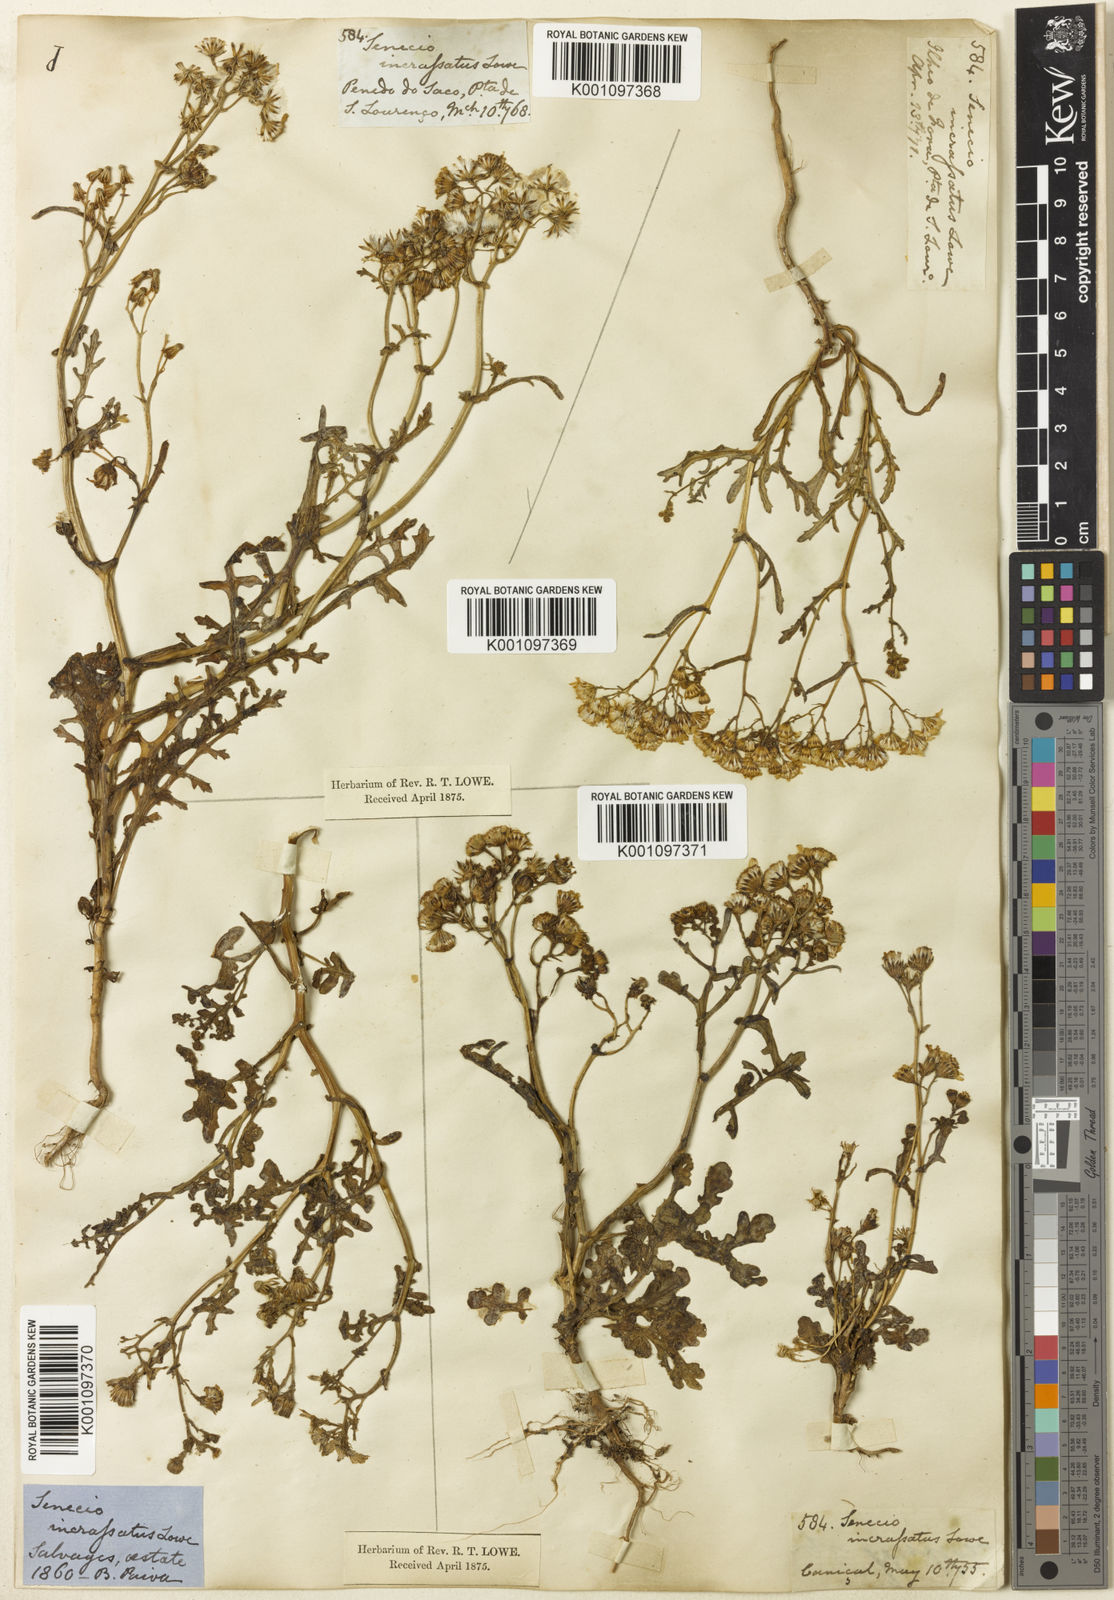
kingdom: Plantae
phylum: Tracheophyta
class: Magnoliopsida
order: Asterales
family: Asteraceae
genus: Senecio
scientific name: Senecio incrassatus
